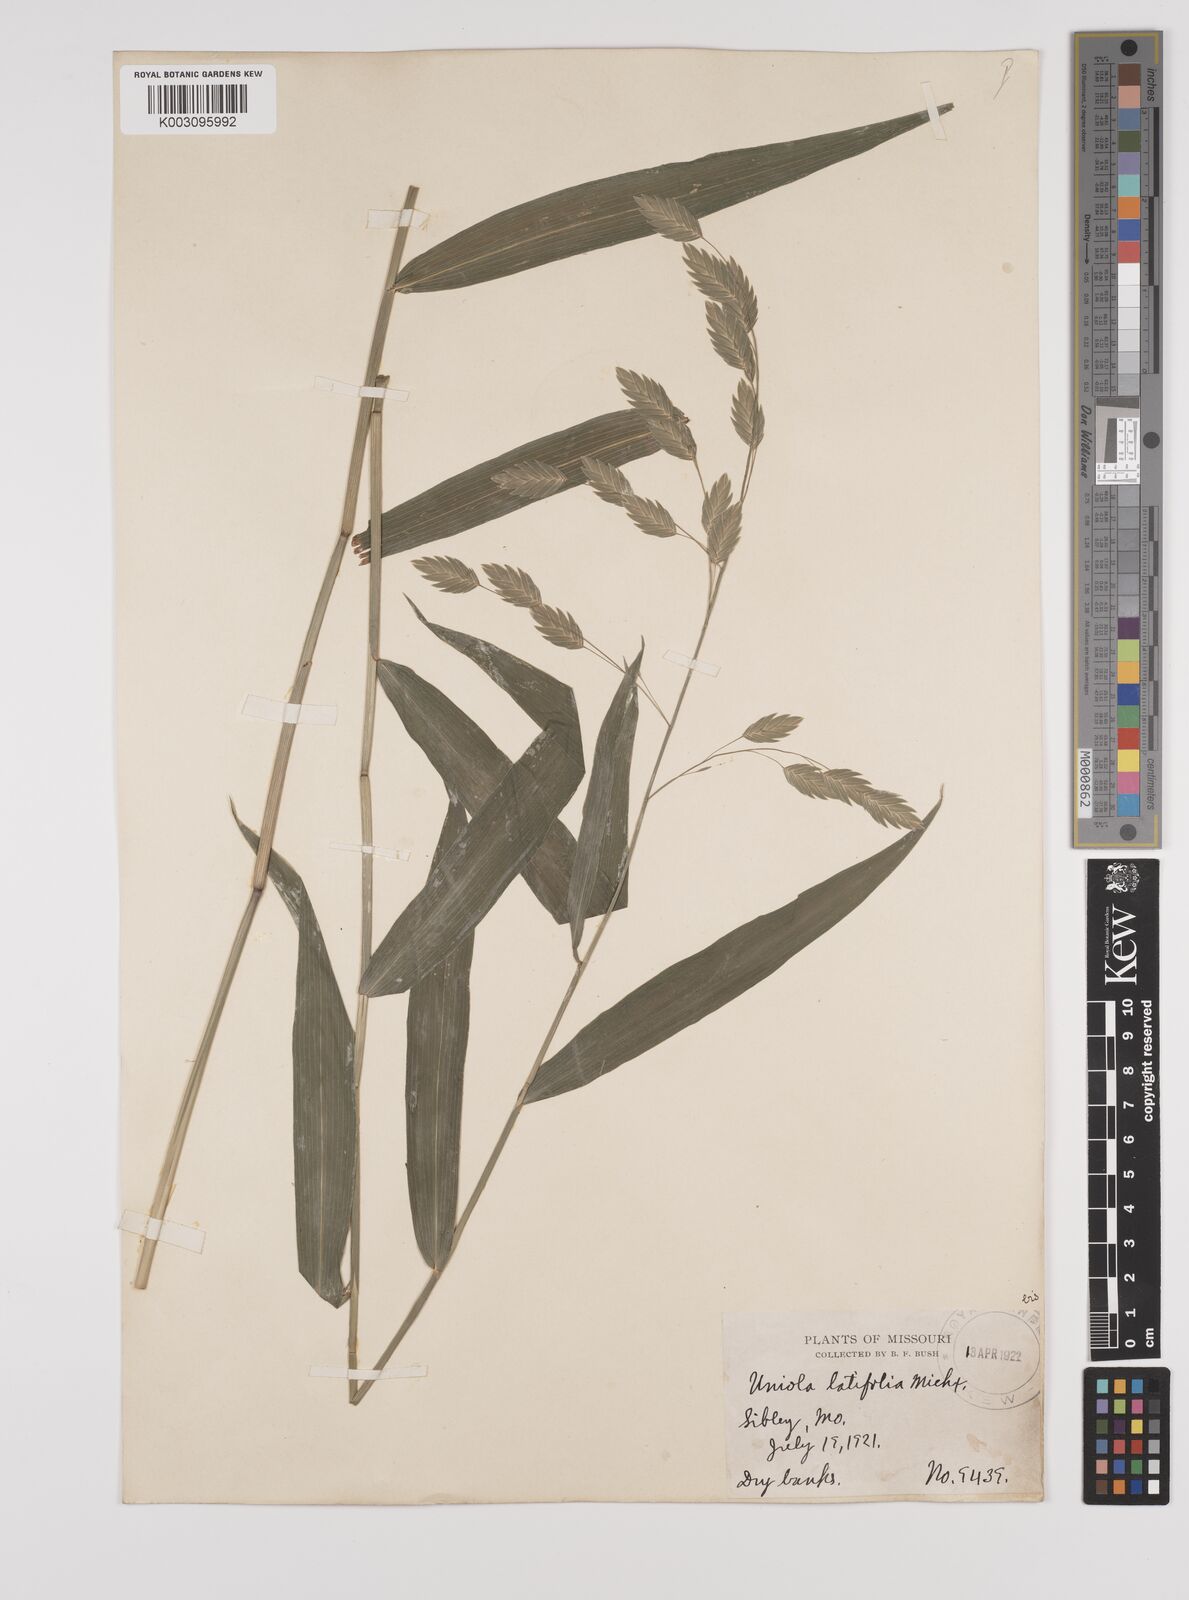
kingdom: Plantae
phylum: Tracheophyta
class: Liliopsida
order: Poales
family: Poaceae
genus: Chasmanthium
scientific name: Chasmanthium latifolium
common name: Broad-leaved chasmanthium
